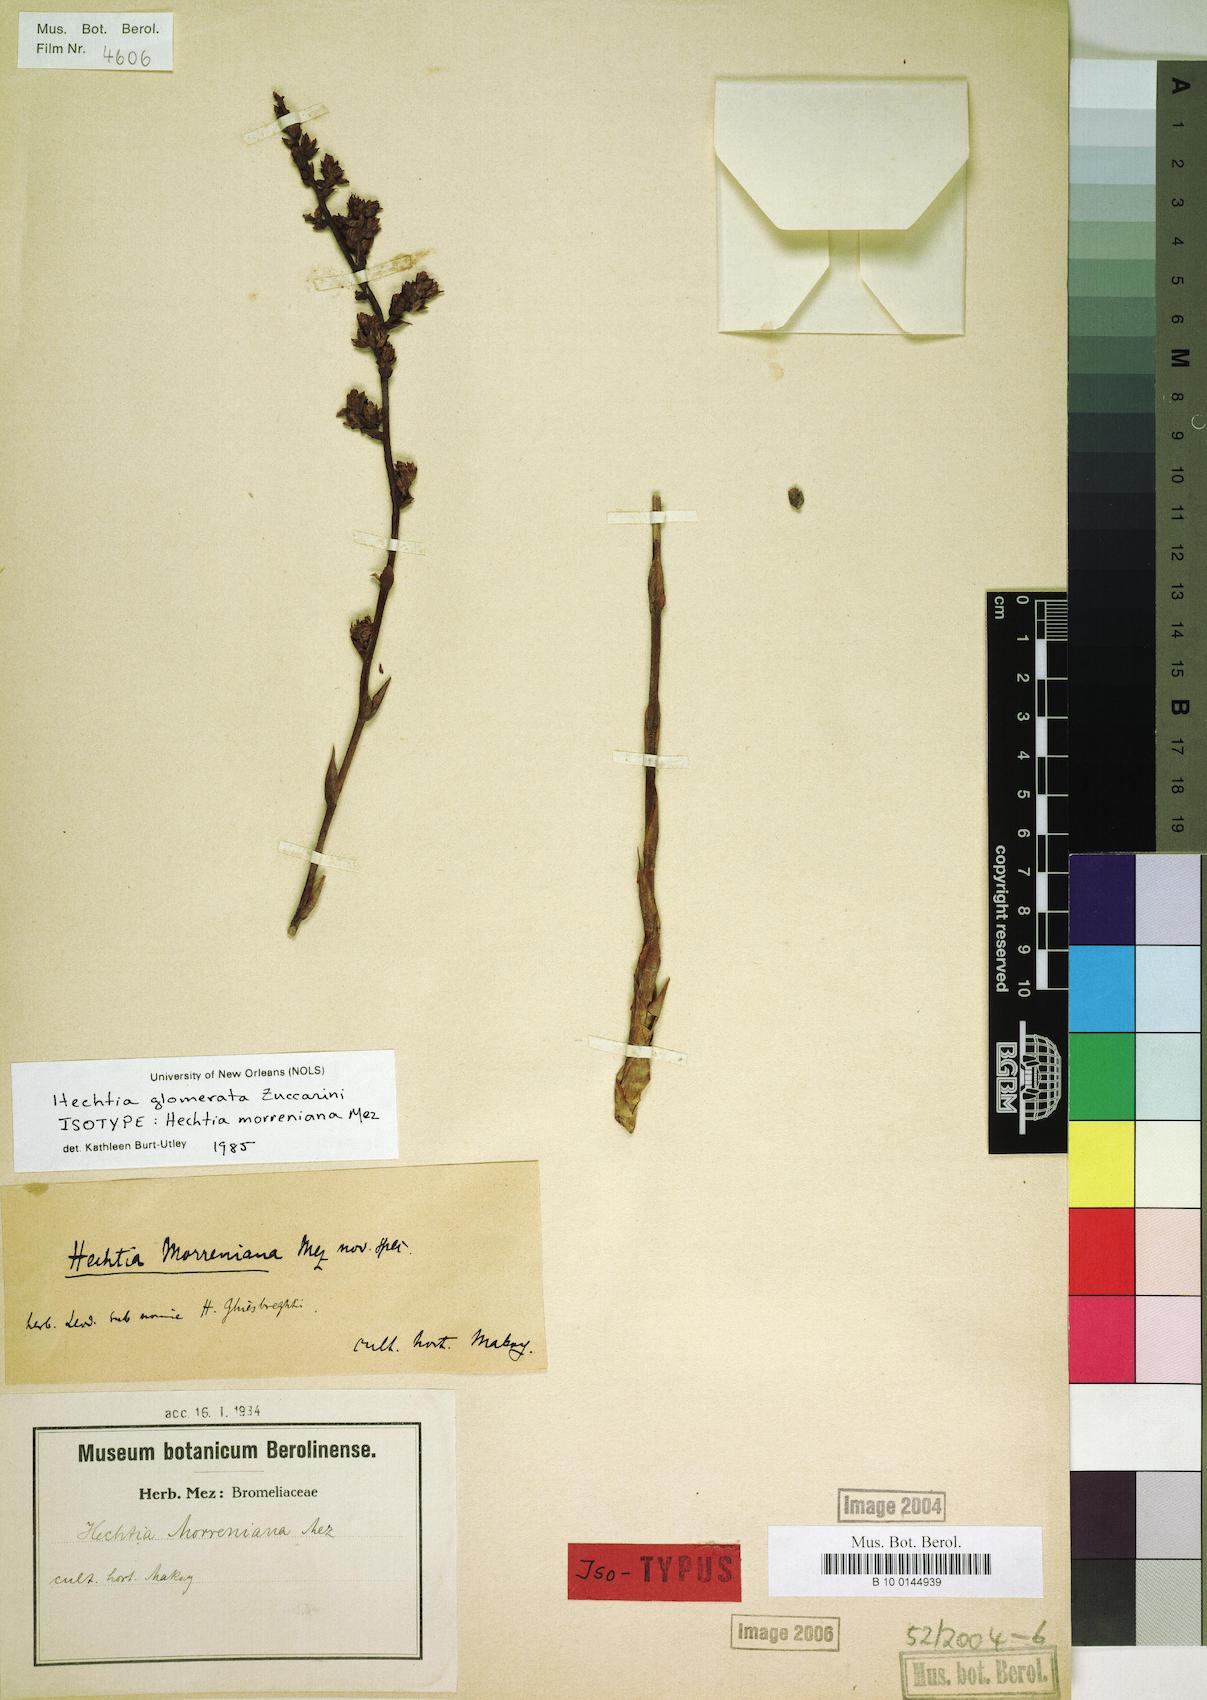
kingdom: Plantae
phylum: Tracheophyta
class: Liliopsida
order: Poales
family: Bromeliaceae
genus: Hechtia
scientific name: Hechtia glomerata
